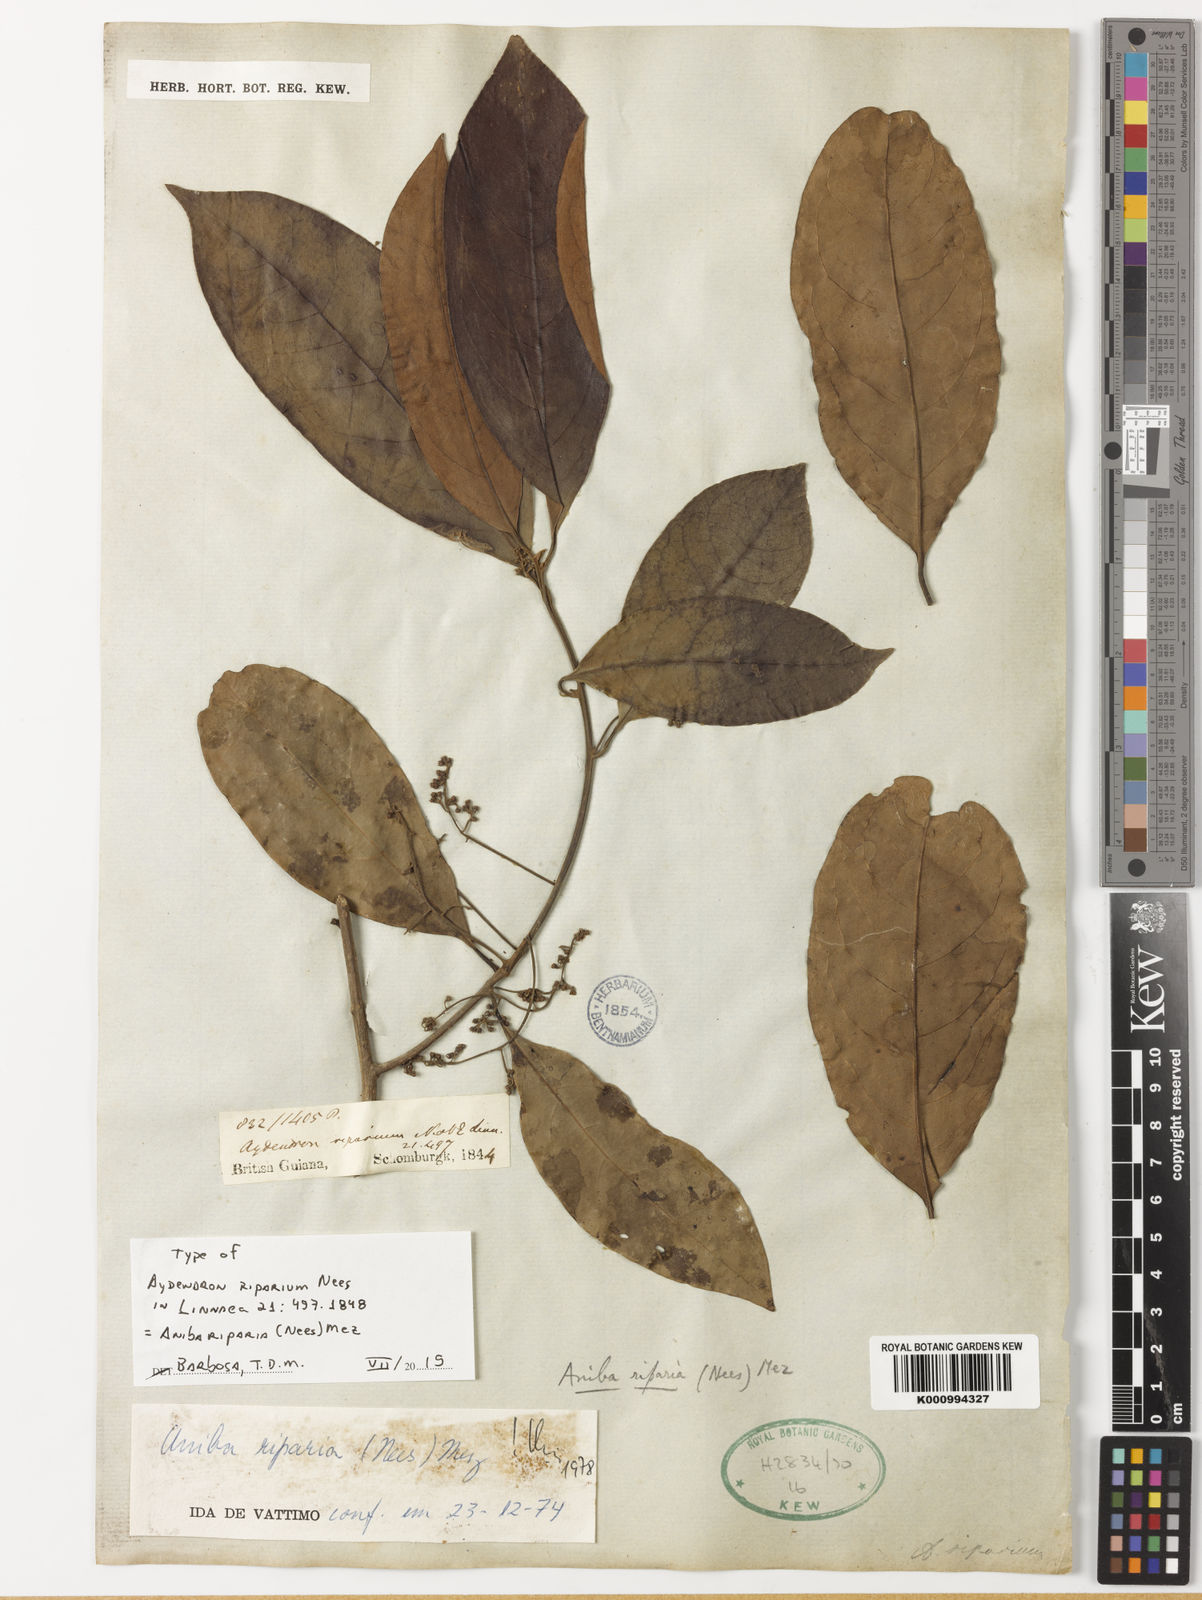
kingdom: Plantae
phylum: Tracheophyta
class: Magnoliopsida
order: Laurales
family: Lauraceae
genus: Aniba
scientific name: Aniba riparia
